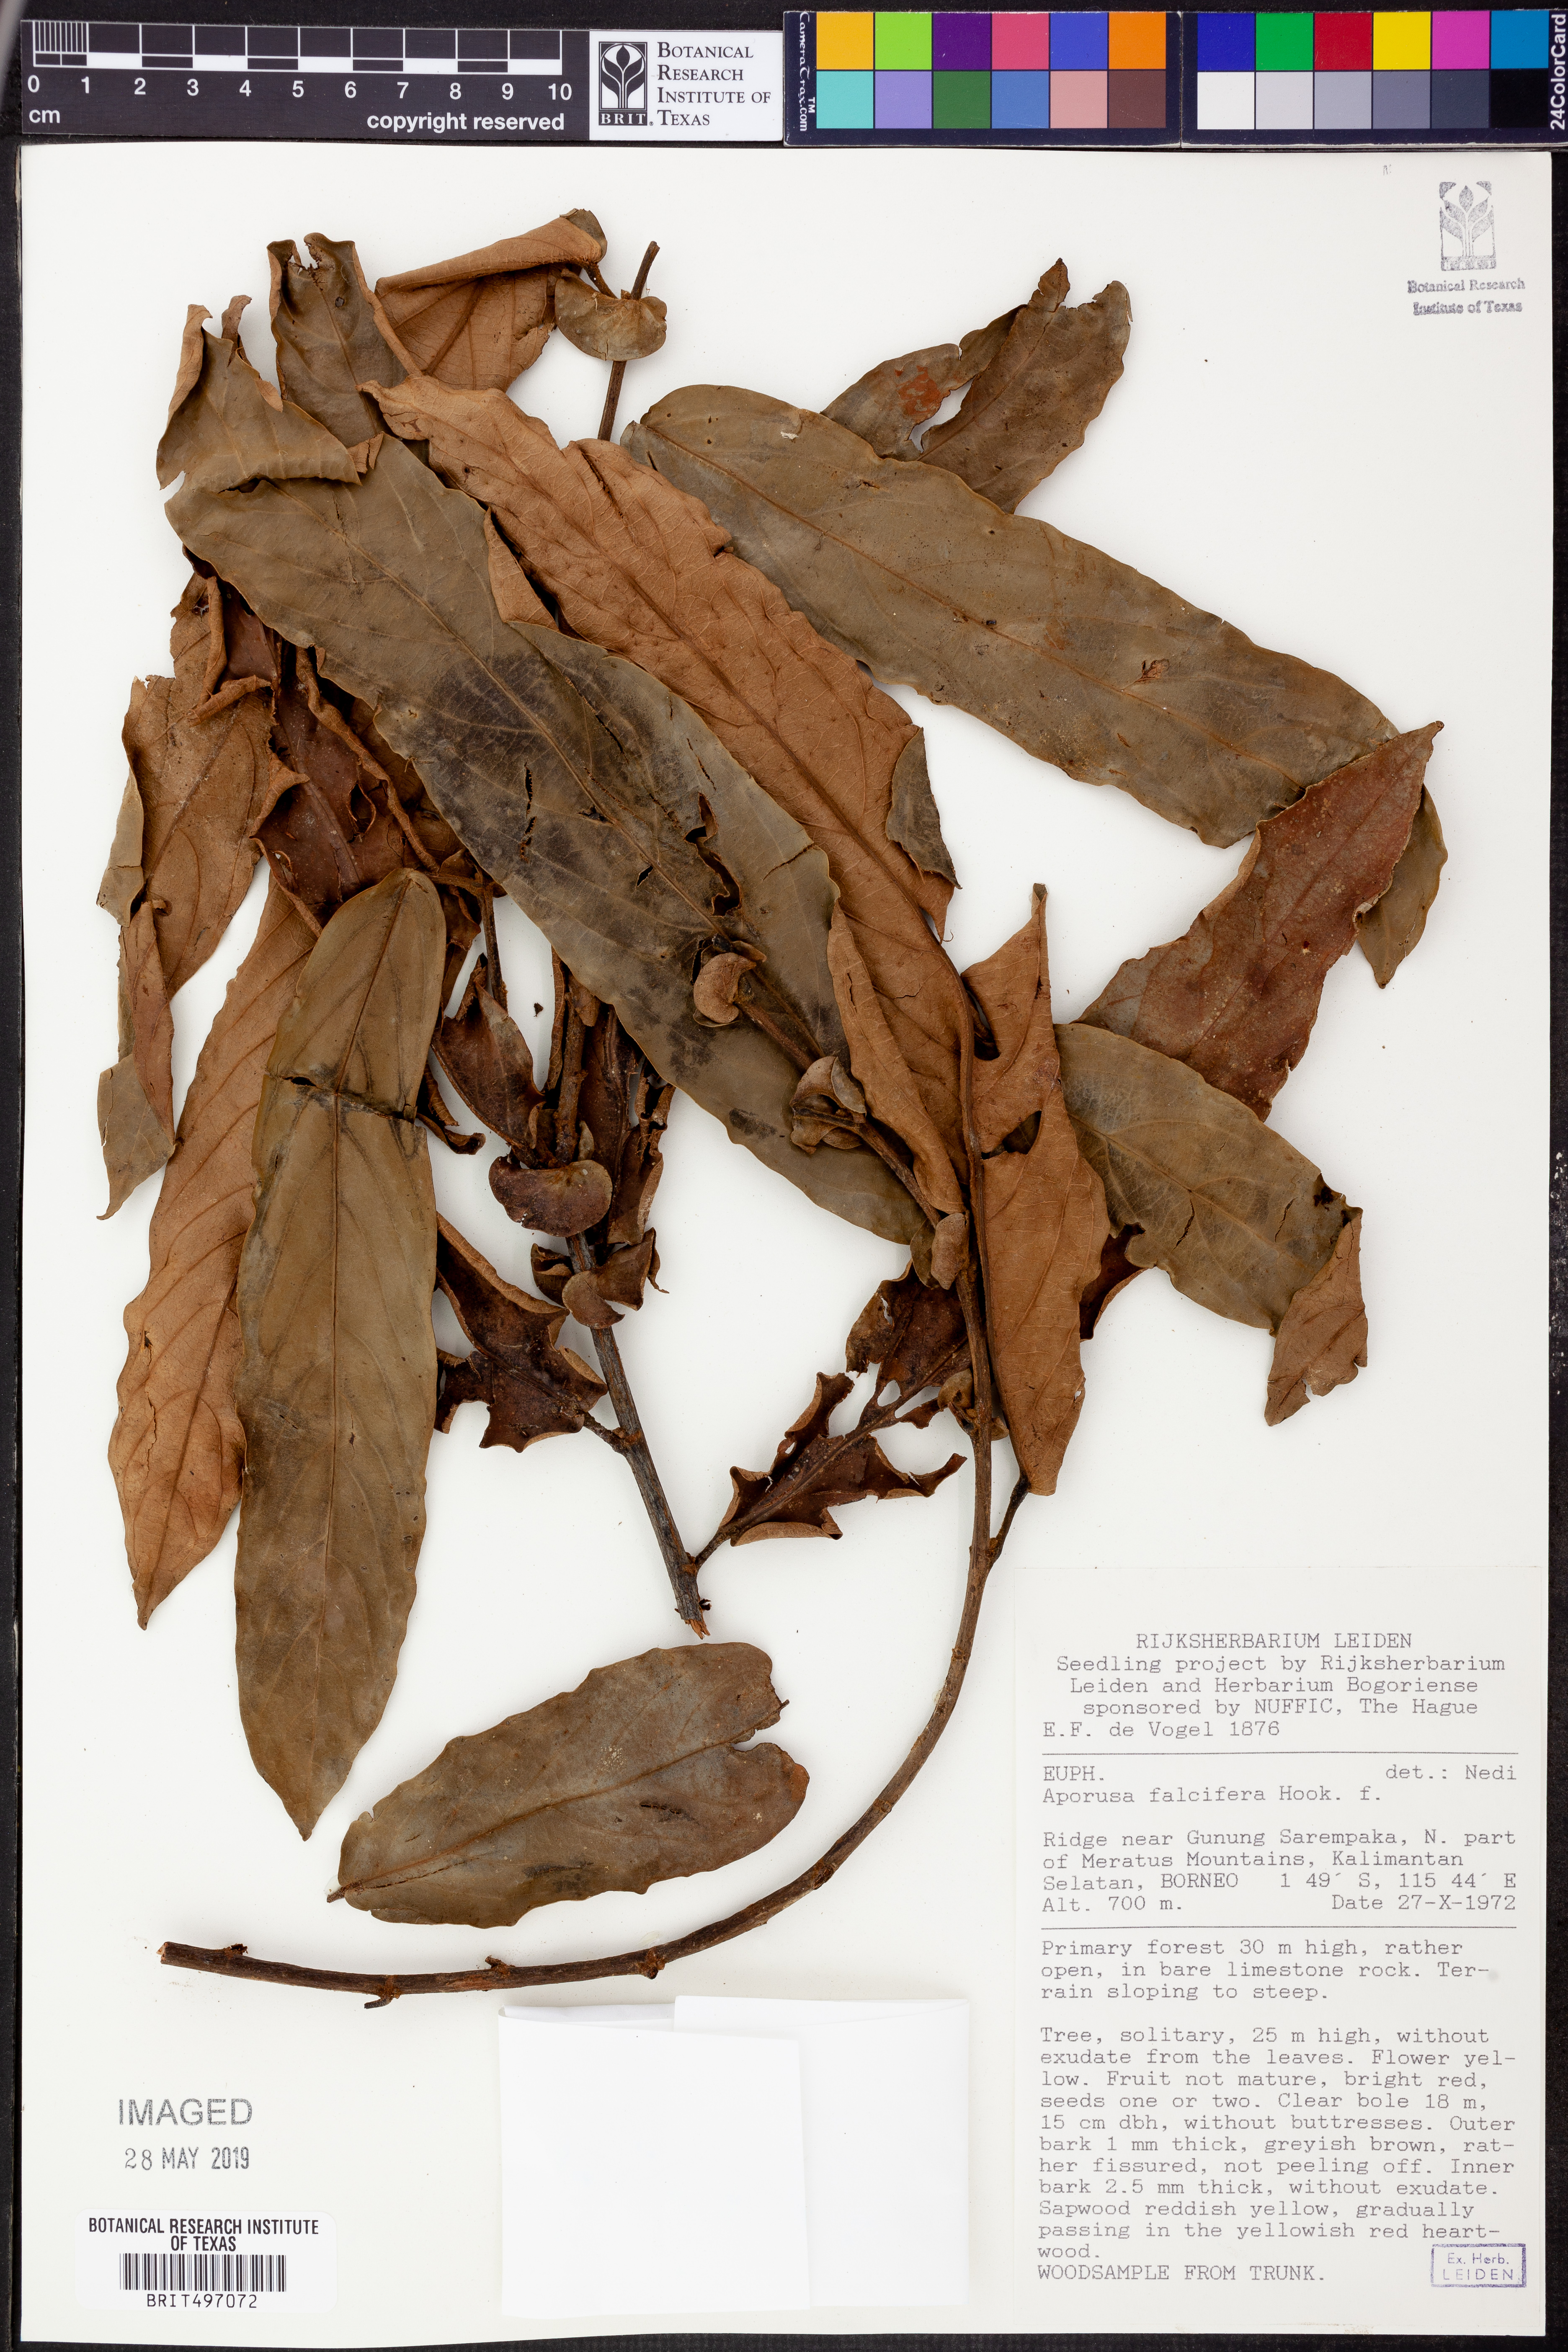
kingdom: Plantae
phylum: Tracheophyta
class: Magnoliopsida
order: Malpighiales
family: Phyllanthaceae
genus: Aporosa
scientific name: Aporosa falcifera
